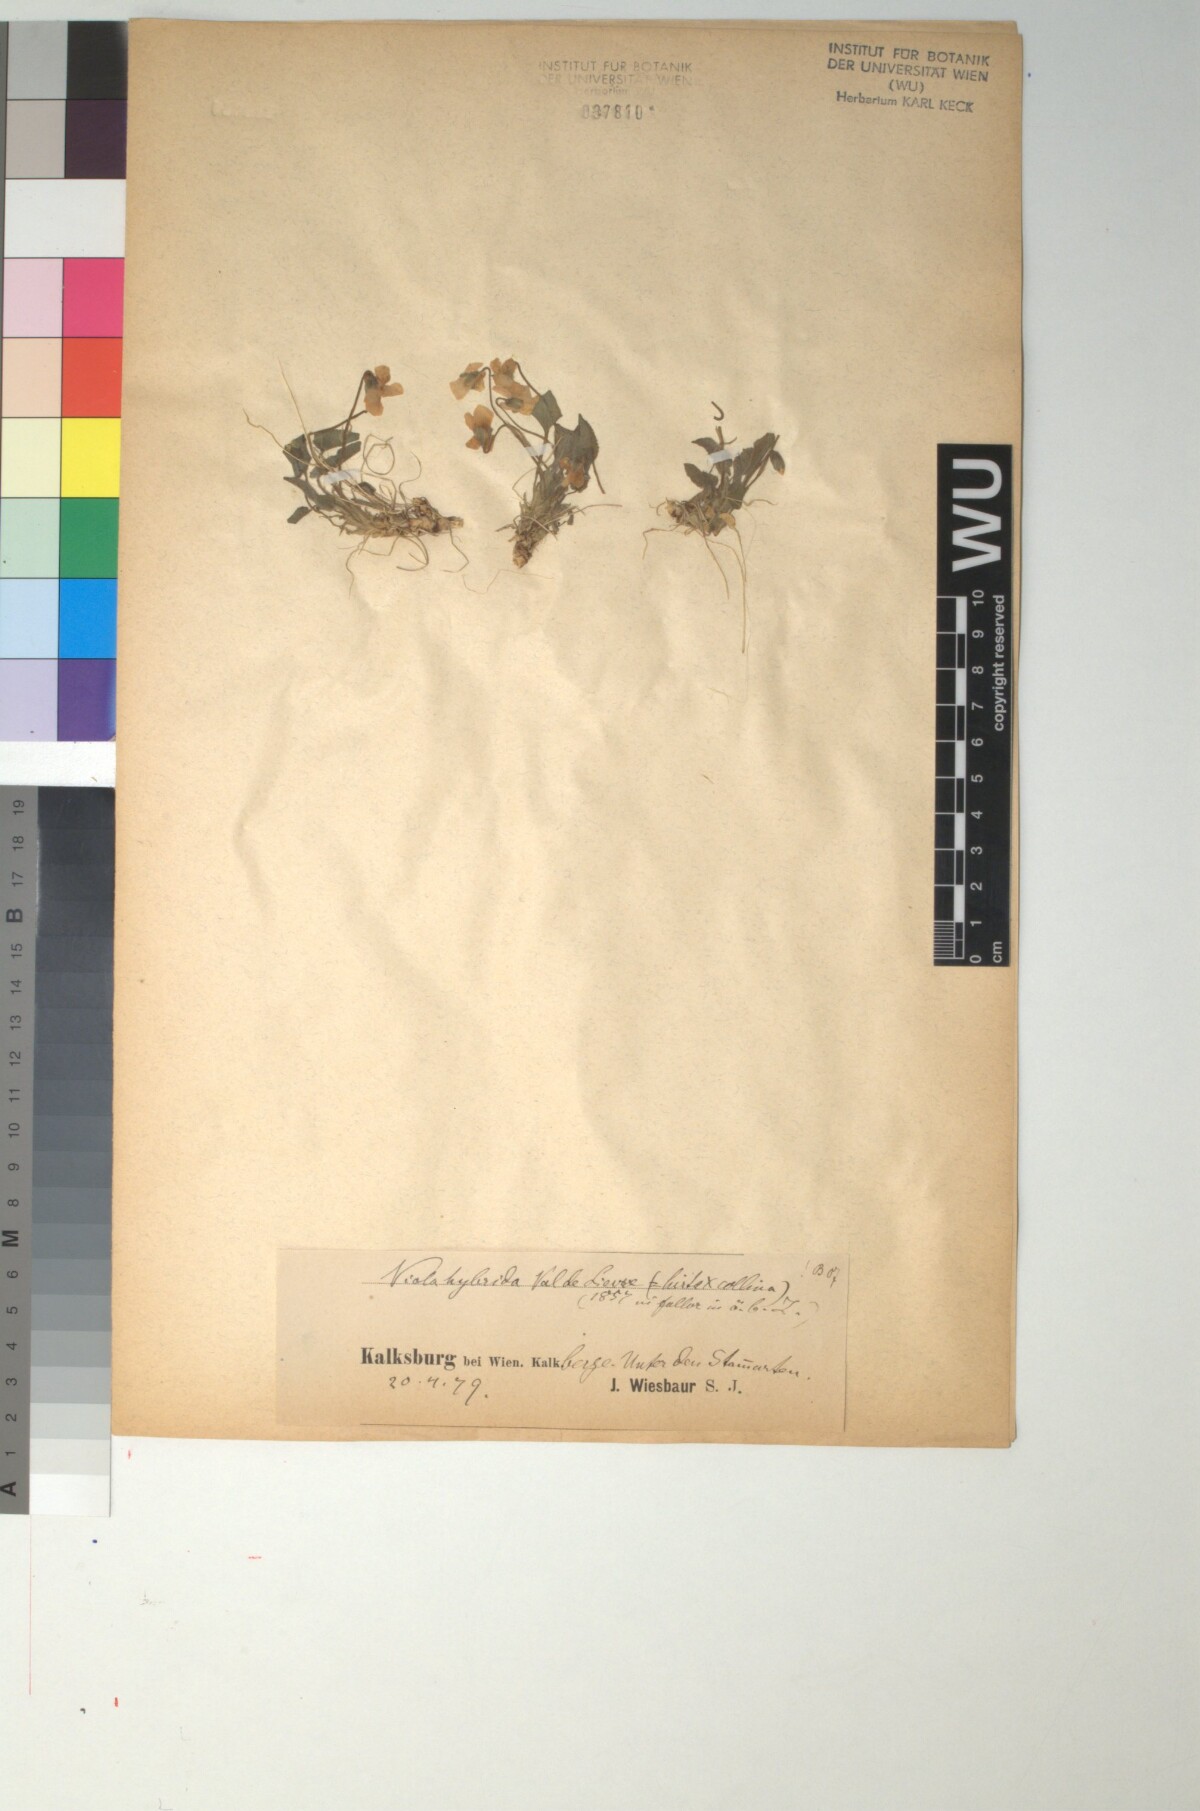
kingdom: Plantae
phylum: Tracheophyta
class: Magnoliopsida
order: Malpighiales
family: Violaceae
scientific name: Violaceae
